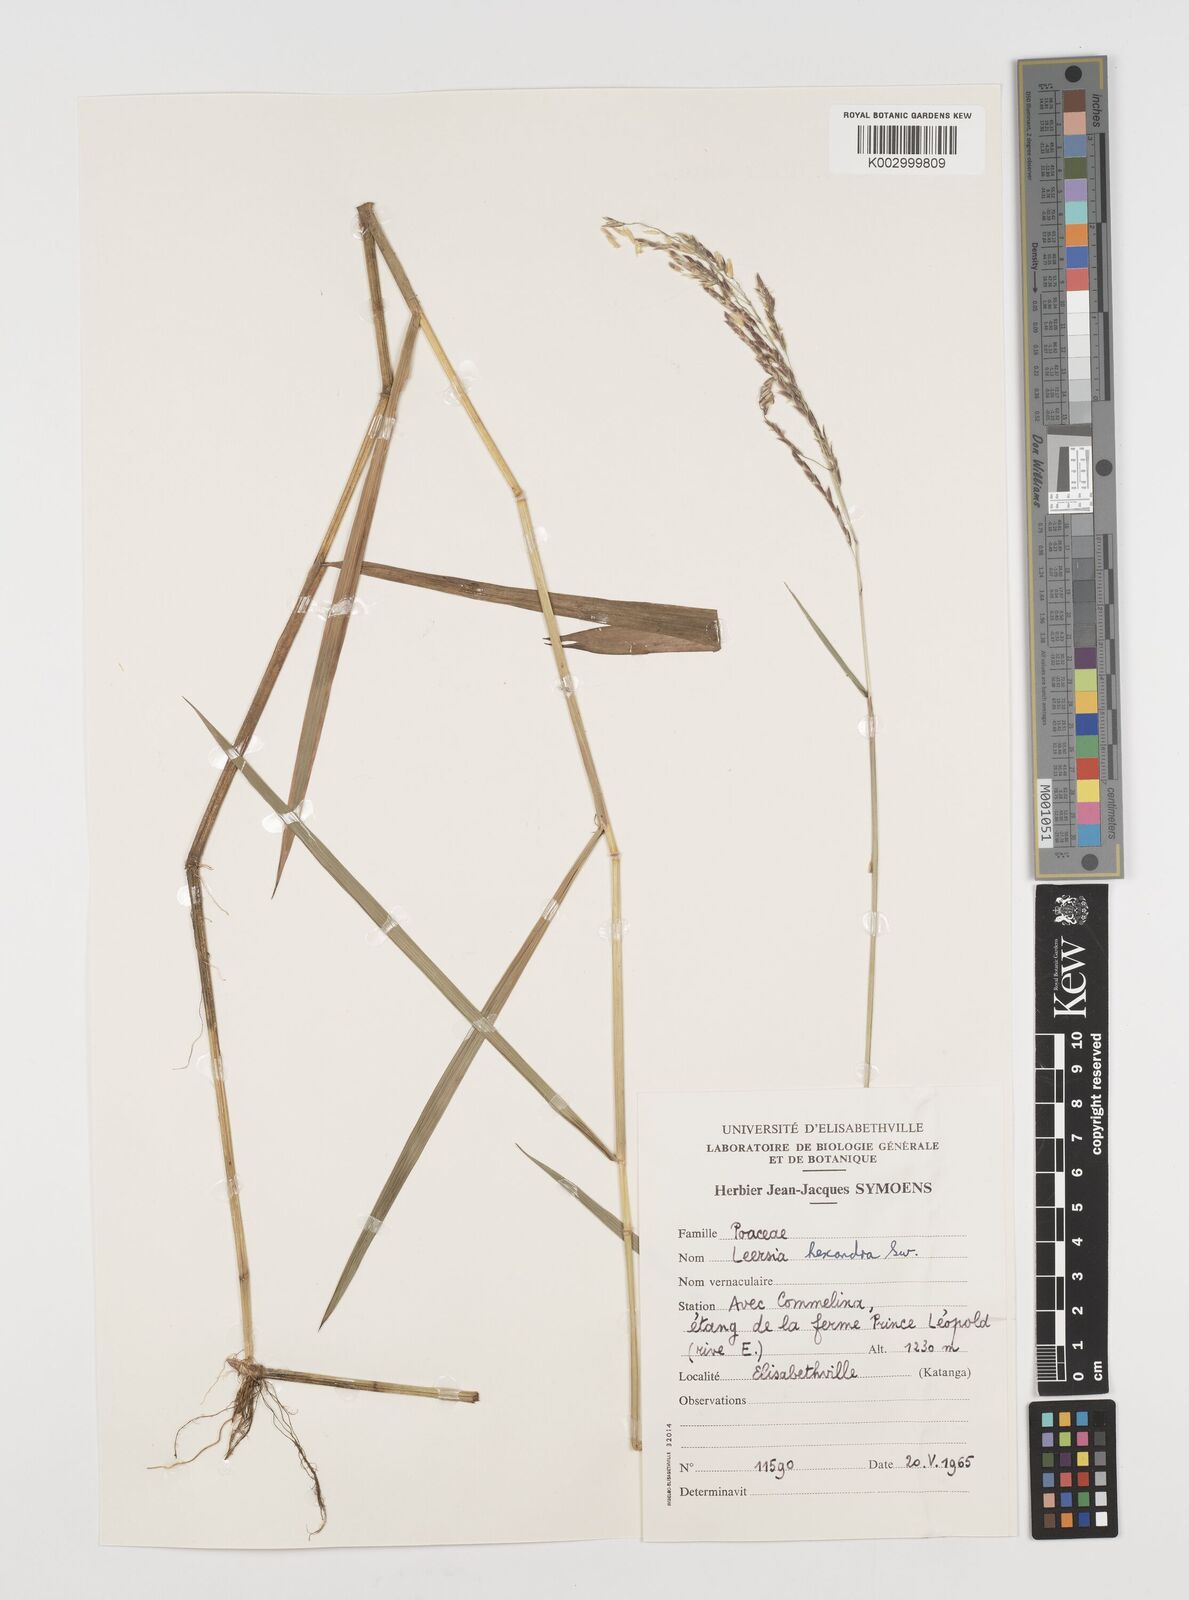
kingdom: Plantae
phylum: Tracheophyta
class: Liliopsida
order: Poales
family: Poaceae
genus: Leersia
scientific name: Leersia hexandra
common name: Southern cut grass
